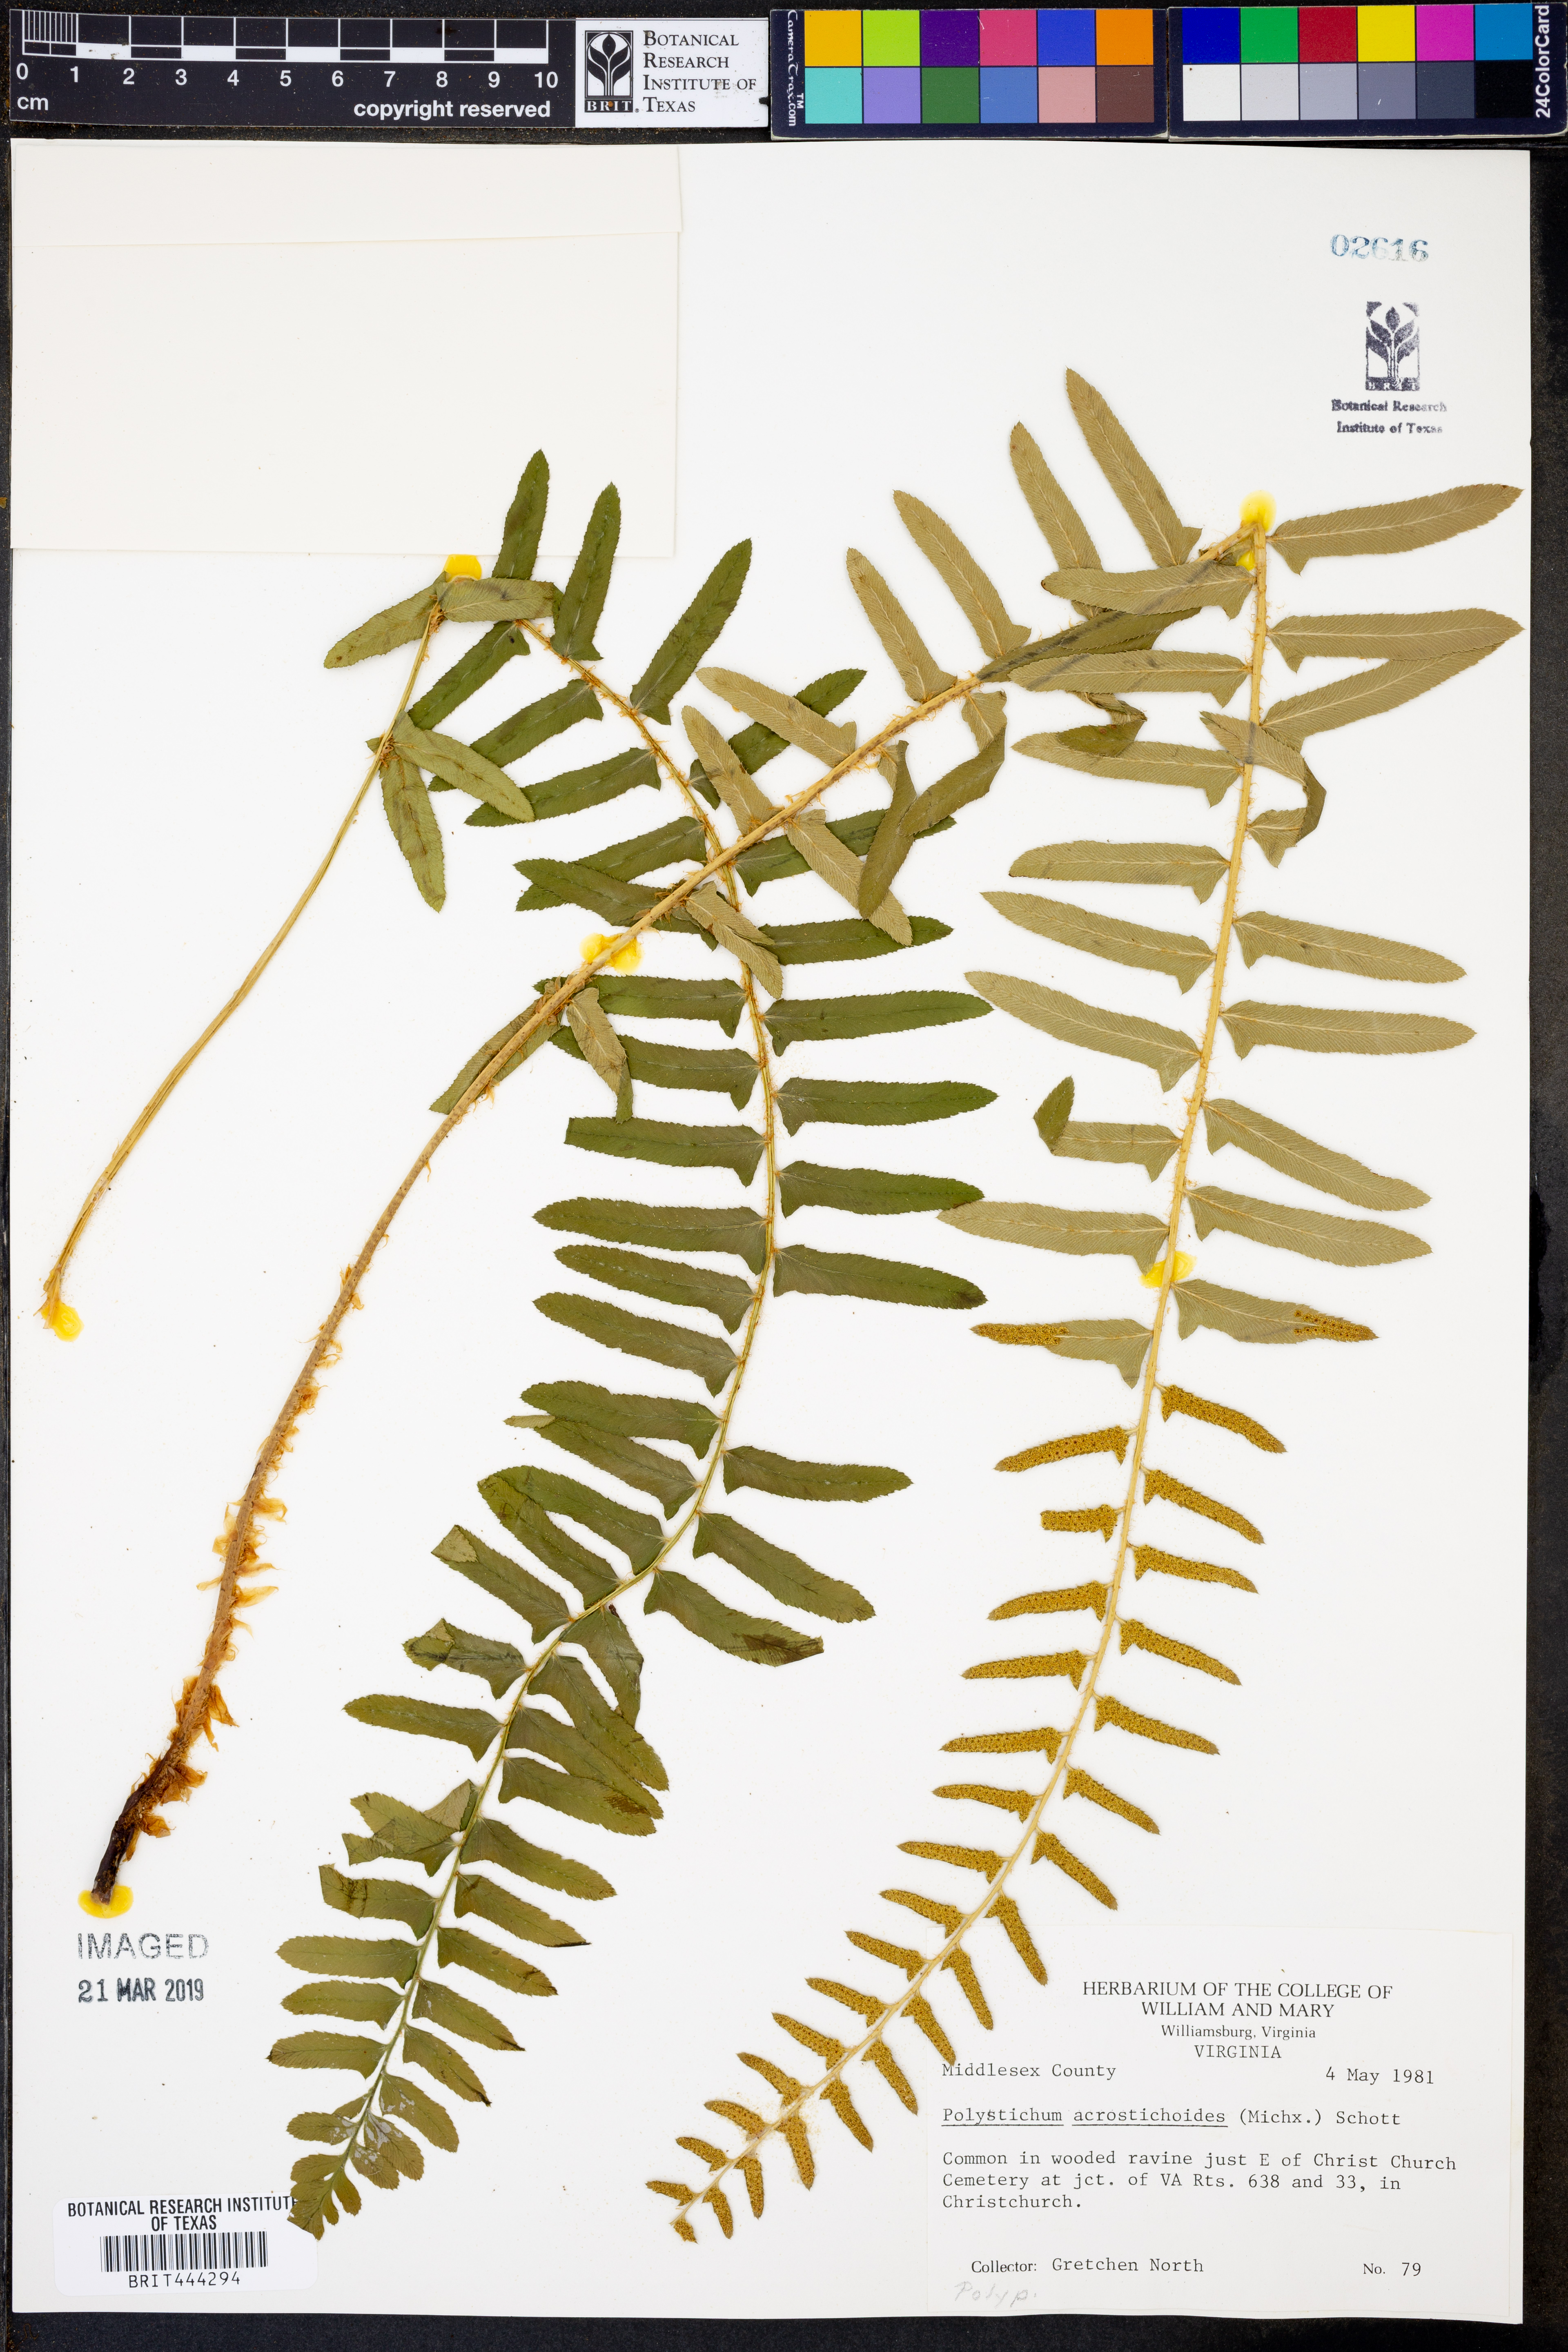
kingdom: Plantae
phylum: Tracheophyta
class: Polypodiopsida
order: Polypodiales
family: Dryopteridaceae
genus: Polystichum
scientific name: Polystichum acrostichoides
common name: Christmas fern
